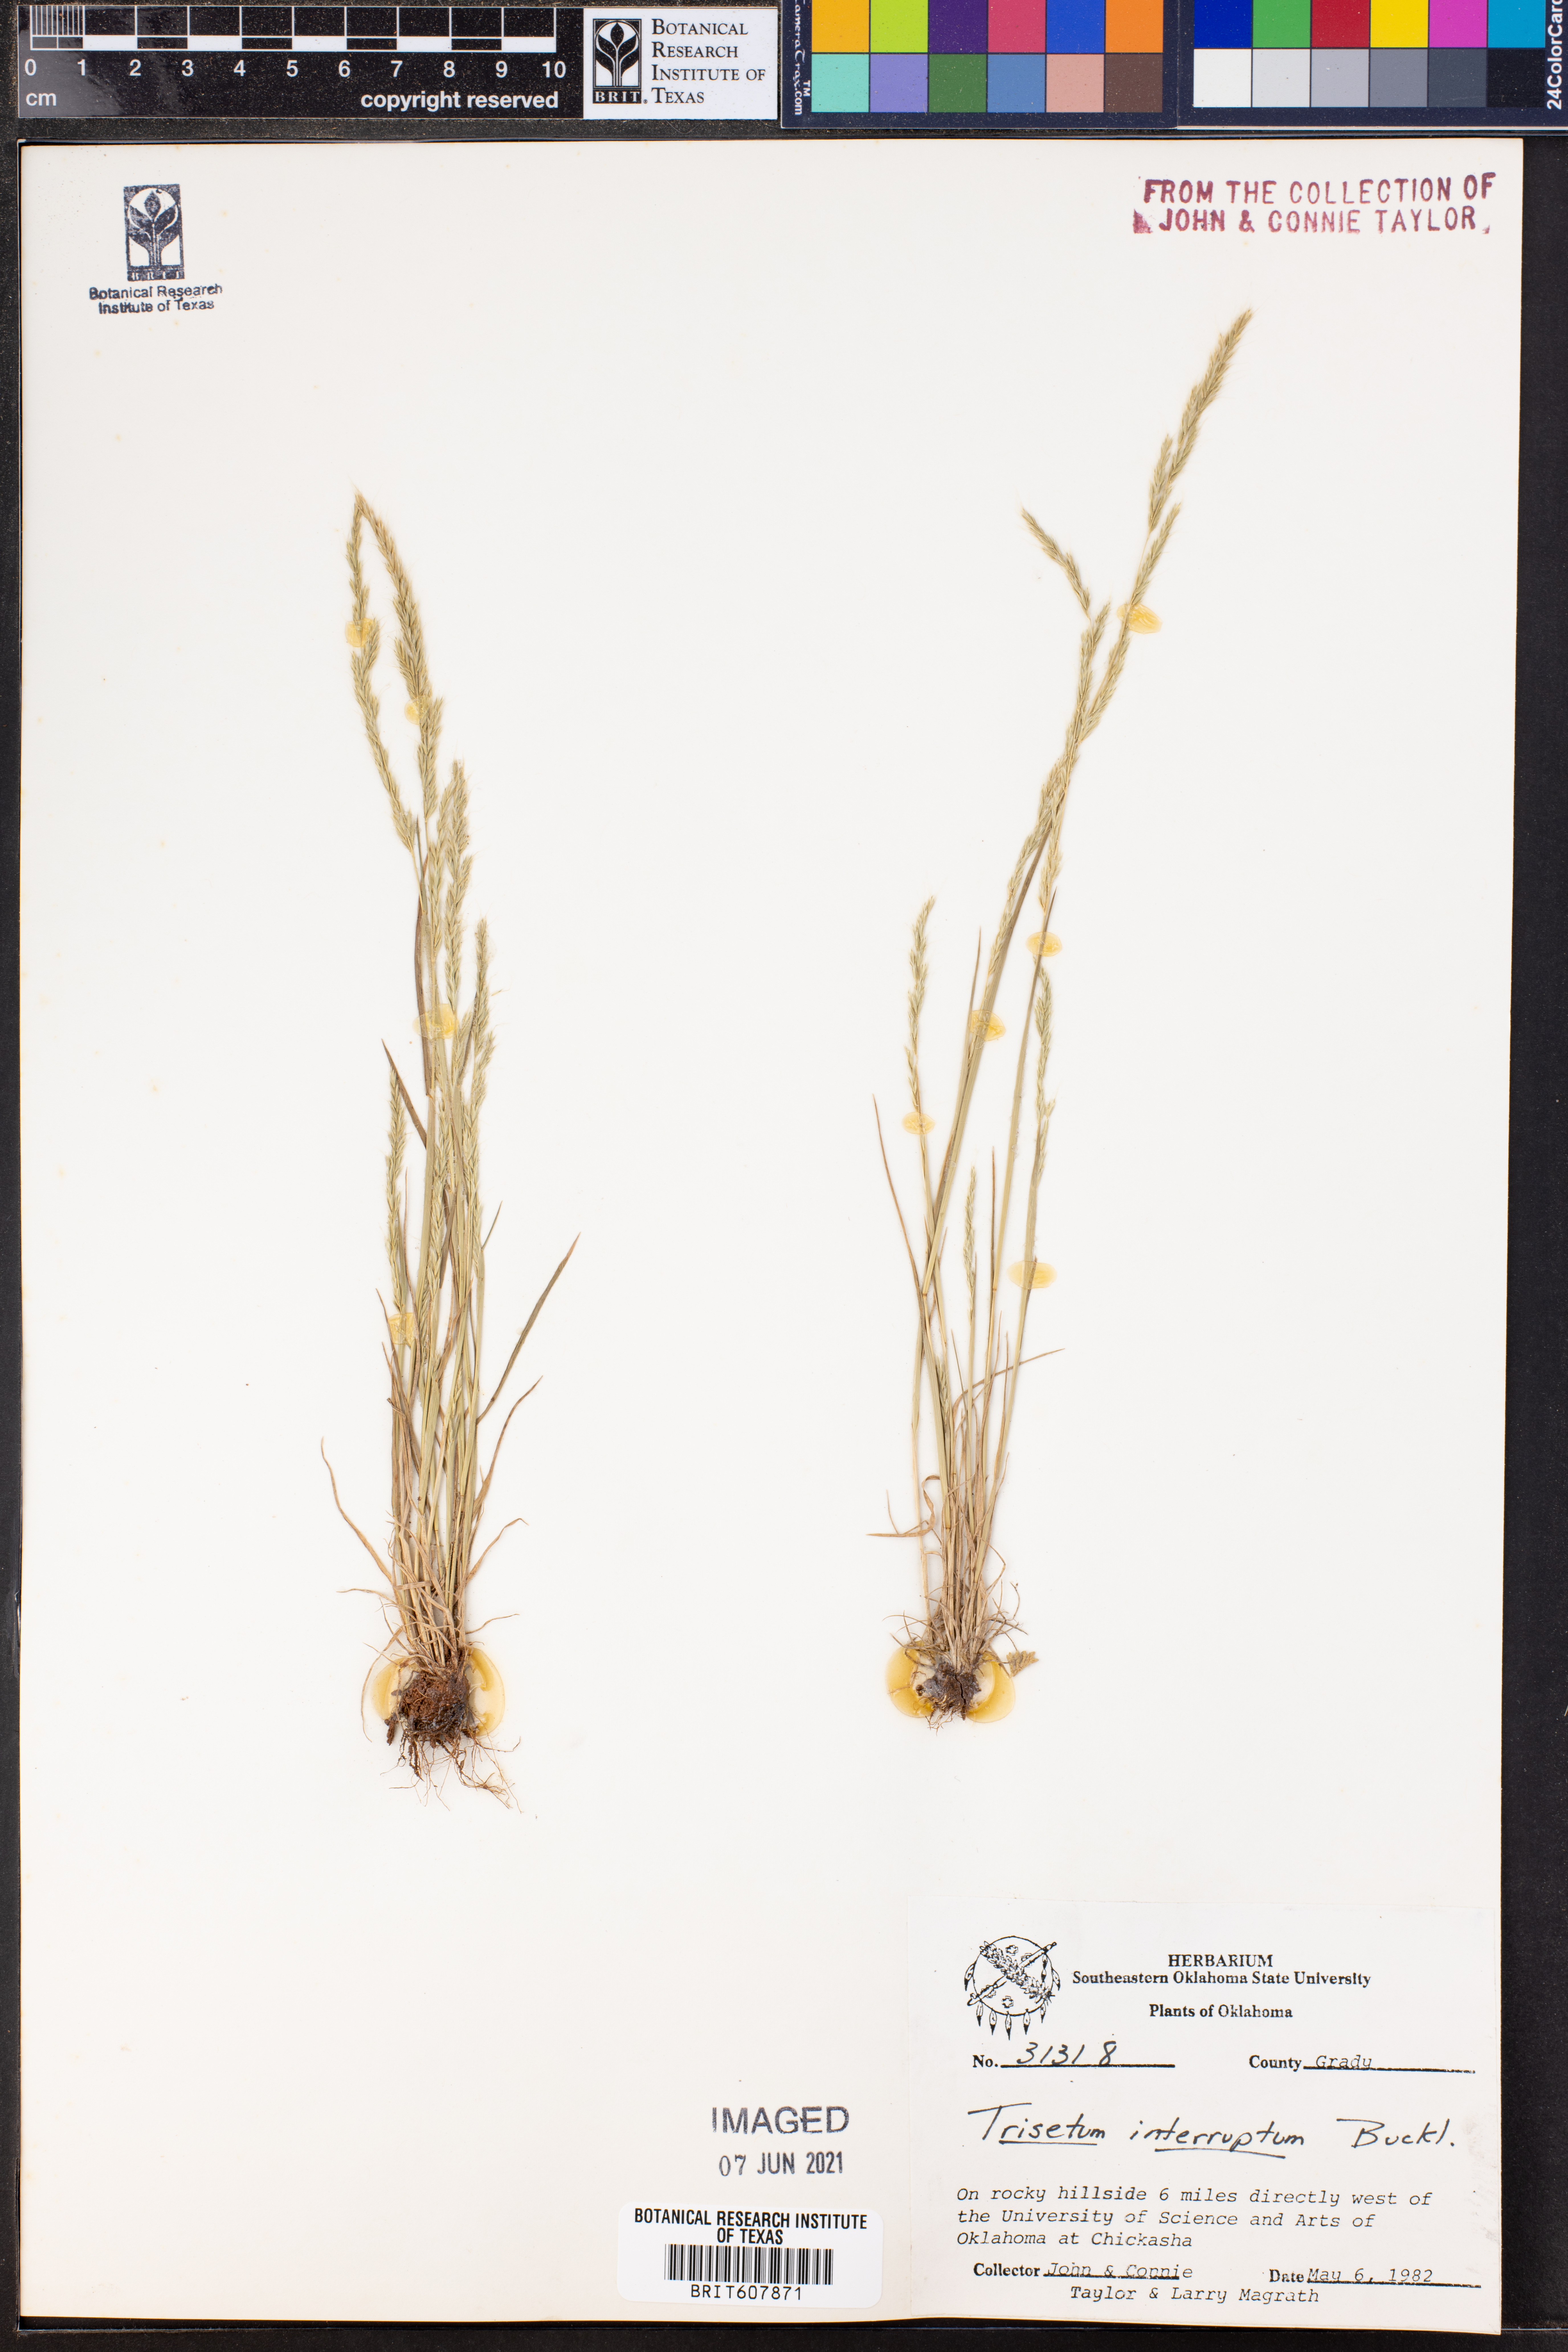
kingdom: Plantae
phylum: Tracheophyta
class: Liliopsida
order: Poales
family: Poaceae
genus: Sphenopholis
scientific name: Sphenopholis interrupta
